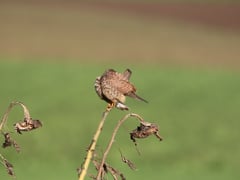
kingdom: Animalia
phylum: Chordata
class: Aves
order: Falconiformes
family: Falconidae
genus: Falco
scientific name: Falco tinnunculus
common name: Common kestrel
